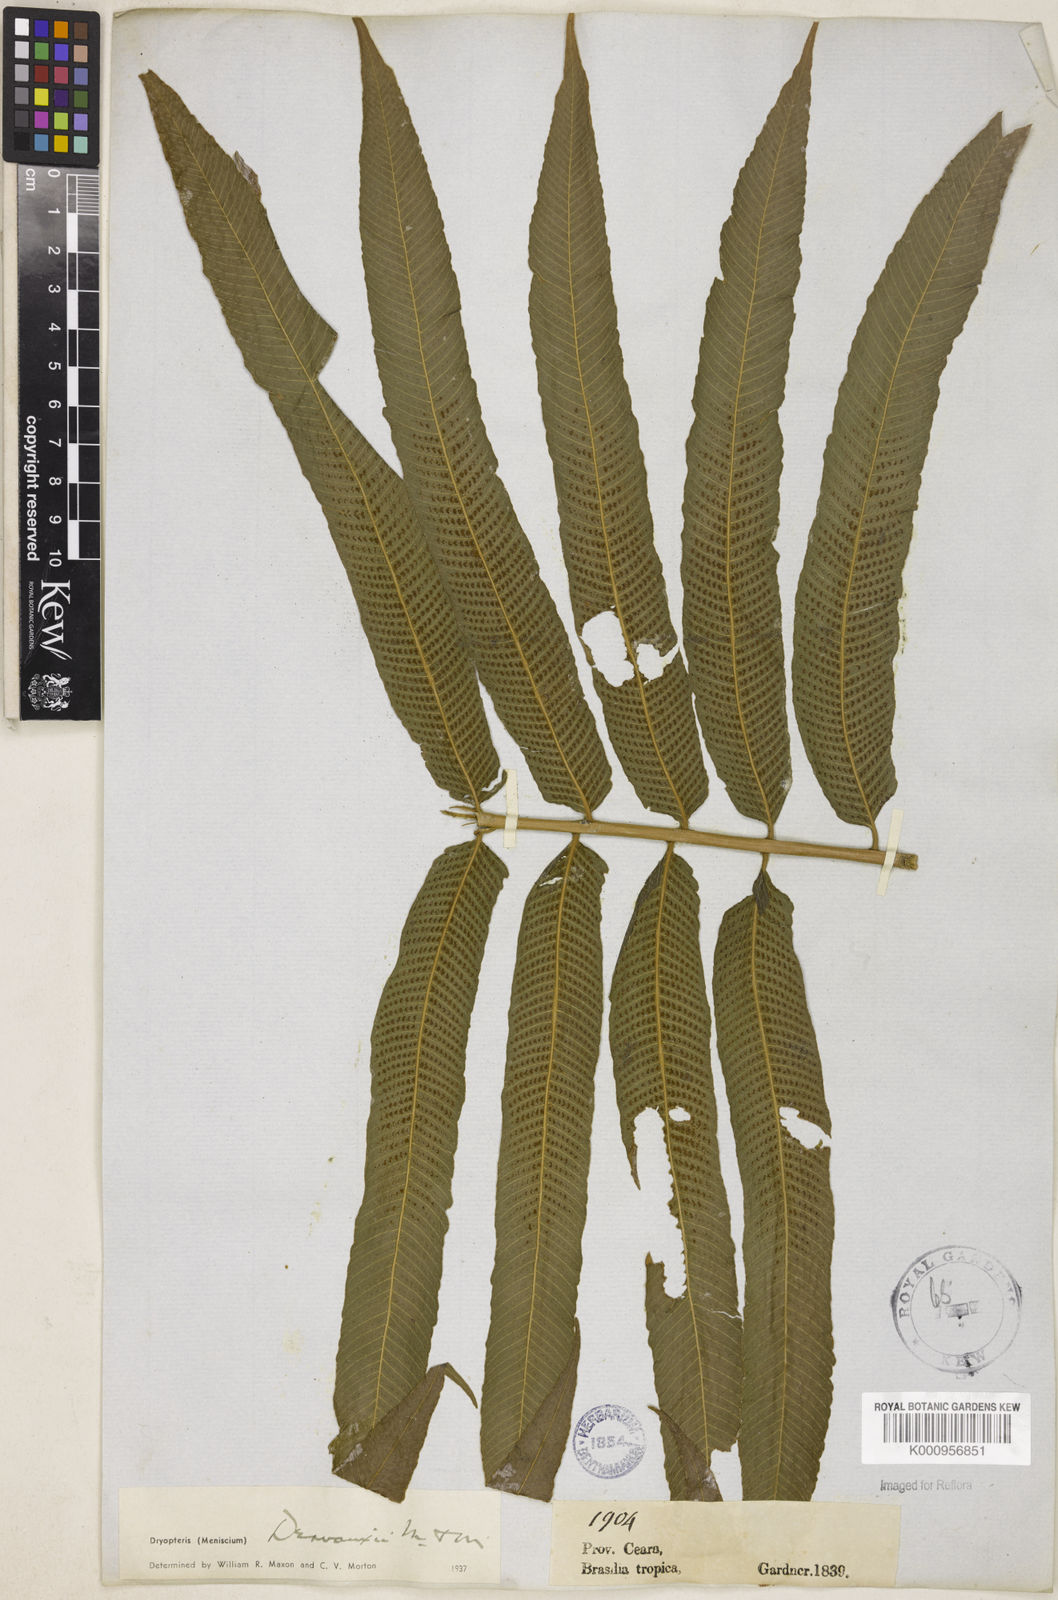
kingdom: Plantae
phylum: Tracheophyta
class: Polypodiopsida
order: Polypodiales
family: Thelypteridaceae
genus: Meniscium
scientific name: Meniscium arborescens
